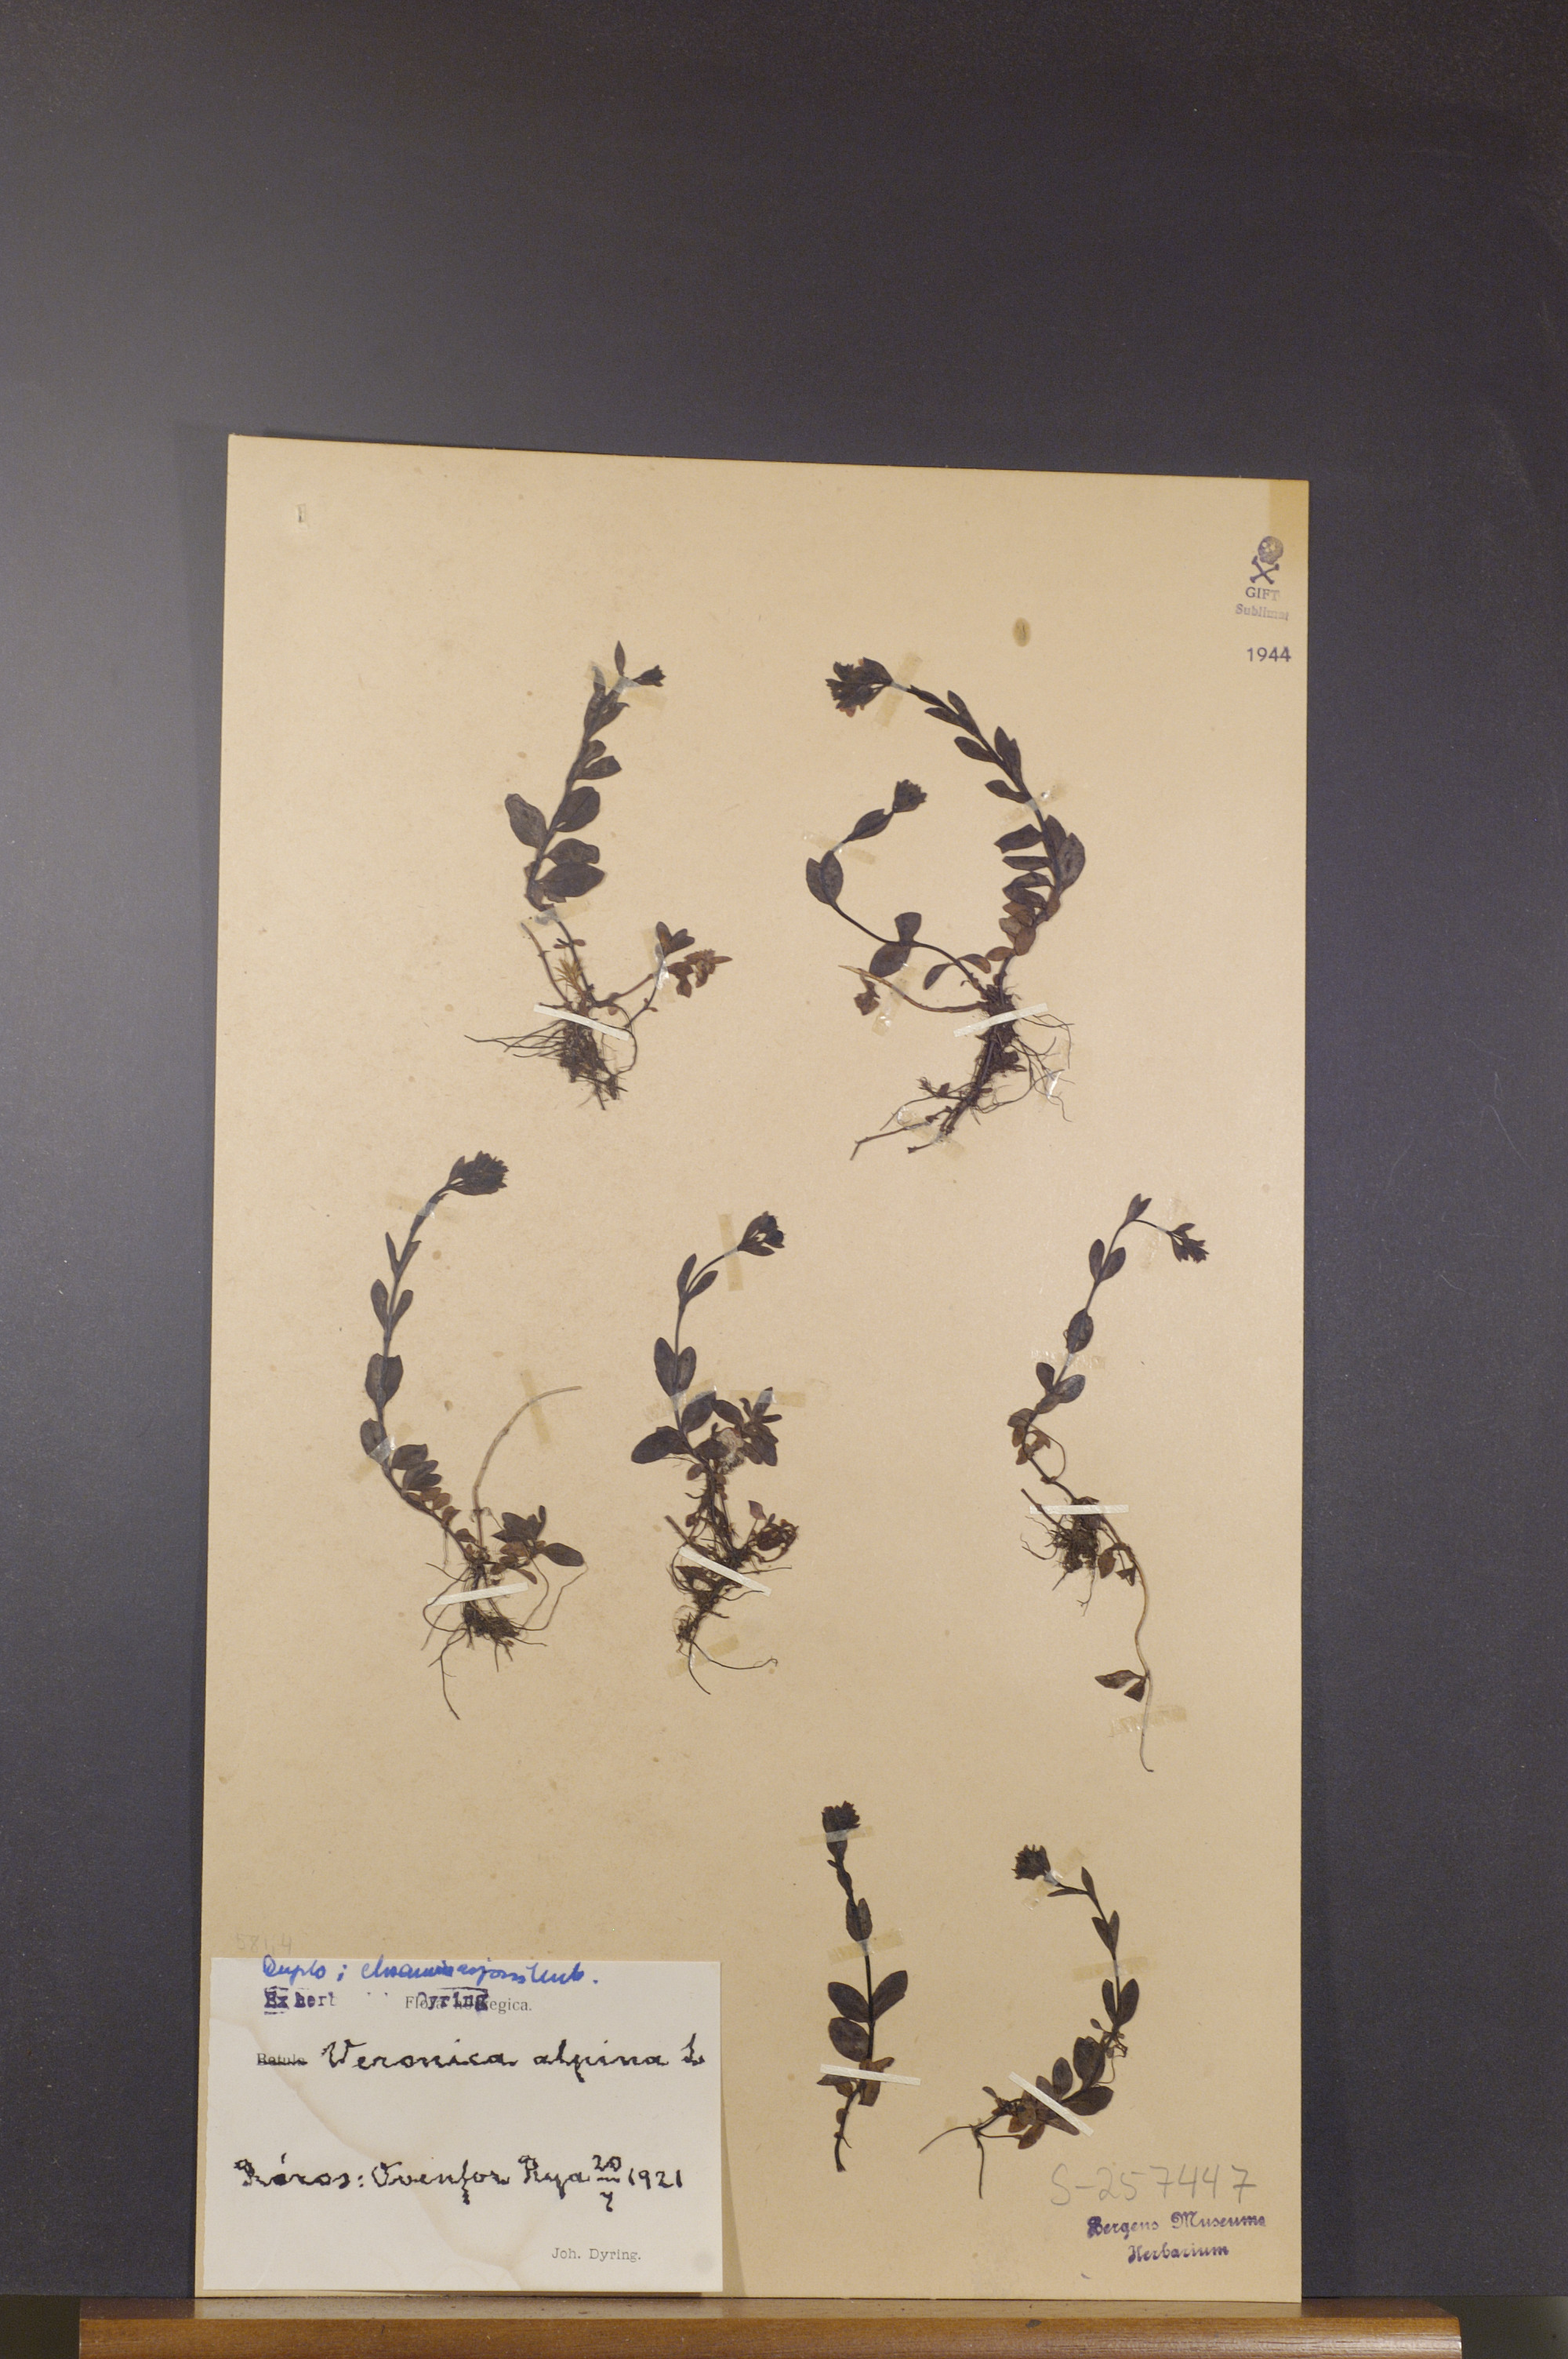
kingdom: Plantae
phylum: Tracheophyta
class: Magnoliopsida
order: Lamiales
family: Plantaginaceae
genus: Veronica
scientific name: Veronica alpina
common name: Alpine speedwell
